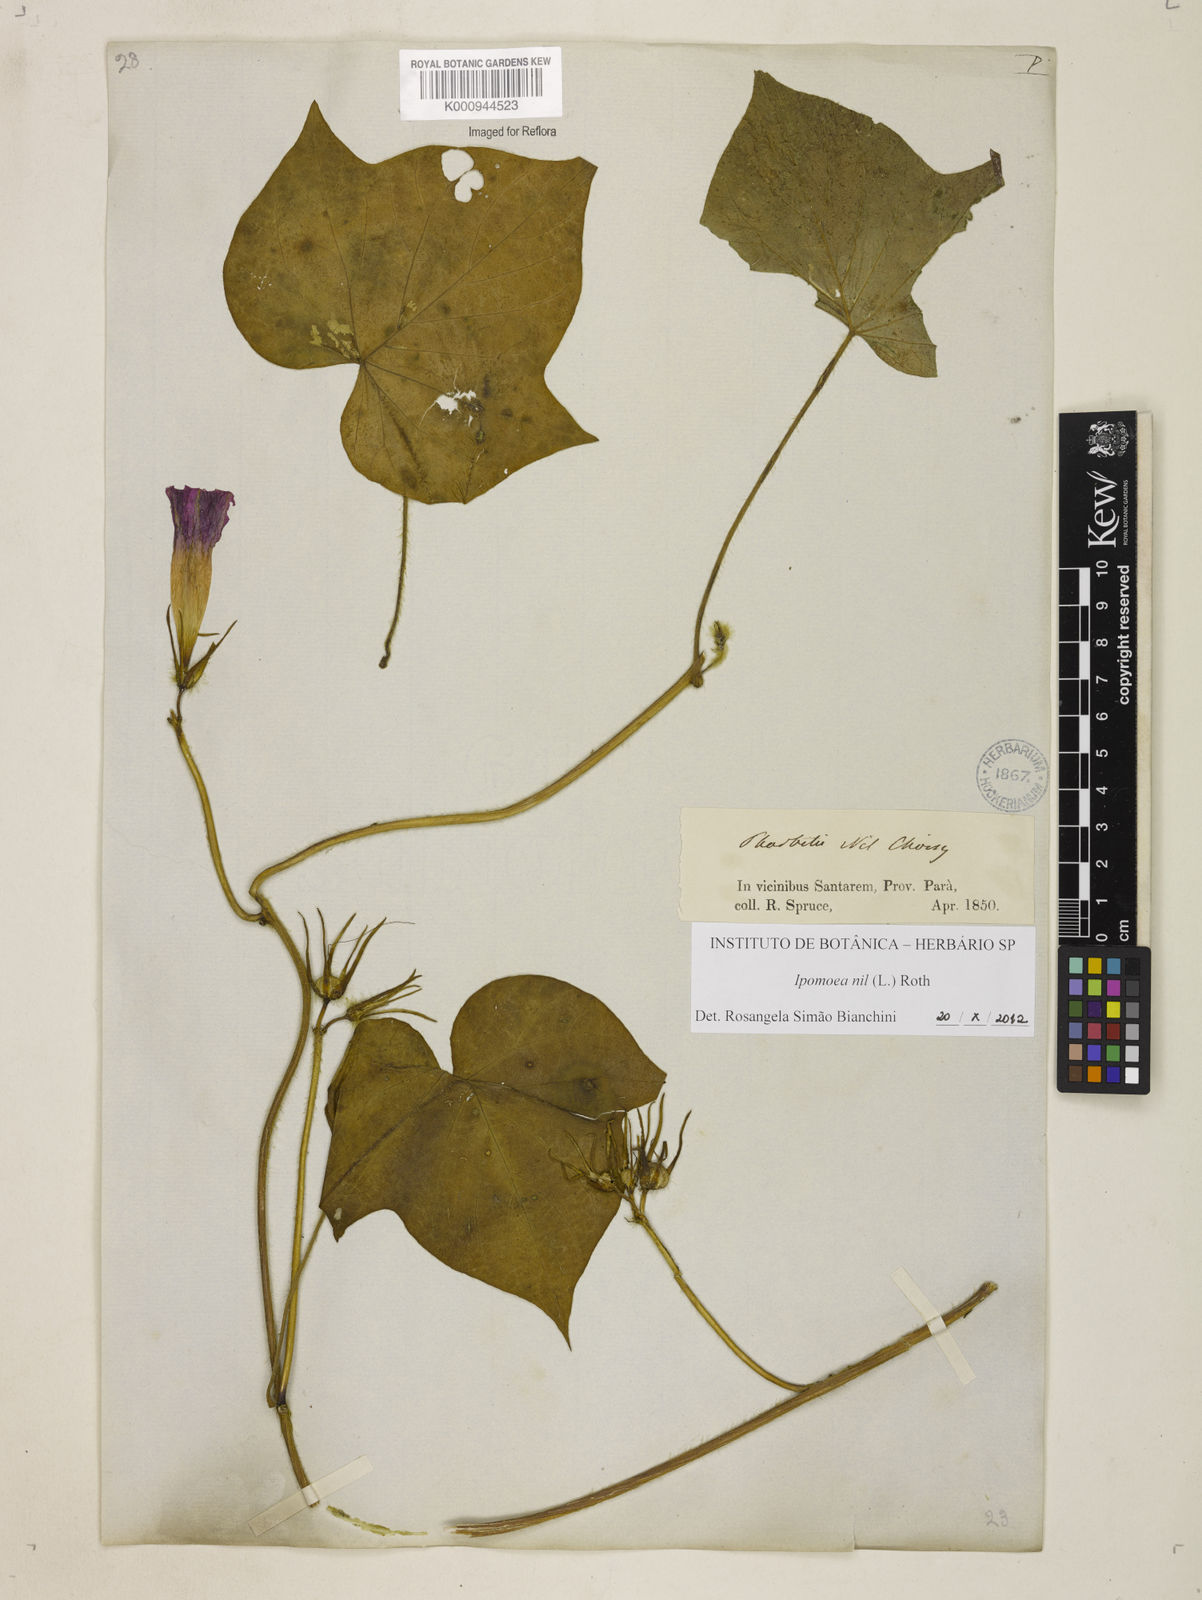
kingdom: Plantae
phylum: Tracheophyta
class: Magnoliopsida
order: Solanales
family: Convolvulaceae
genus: Ipomoea
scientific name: Ipomoea nil
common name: Japanese morning-glory
